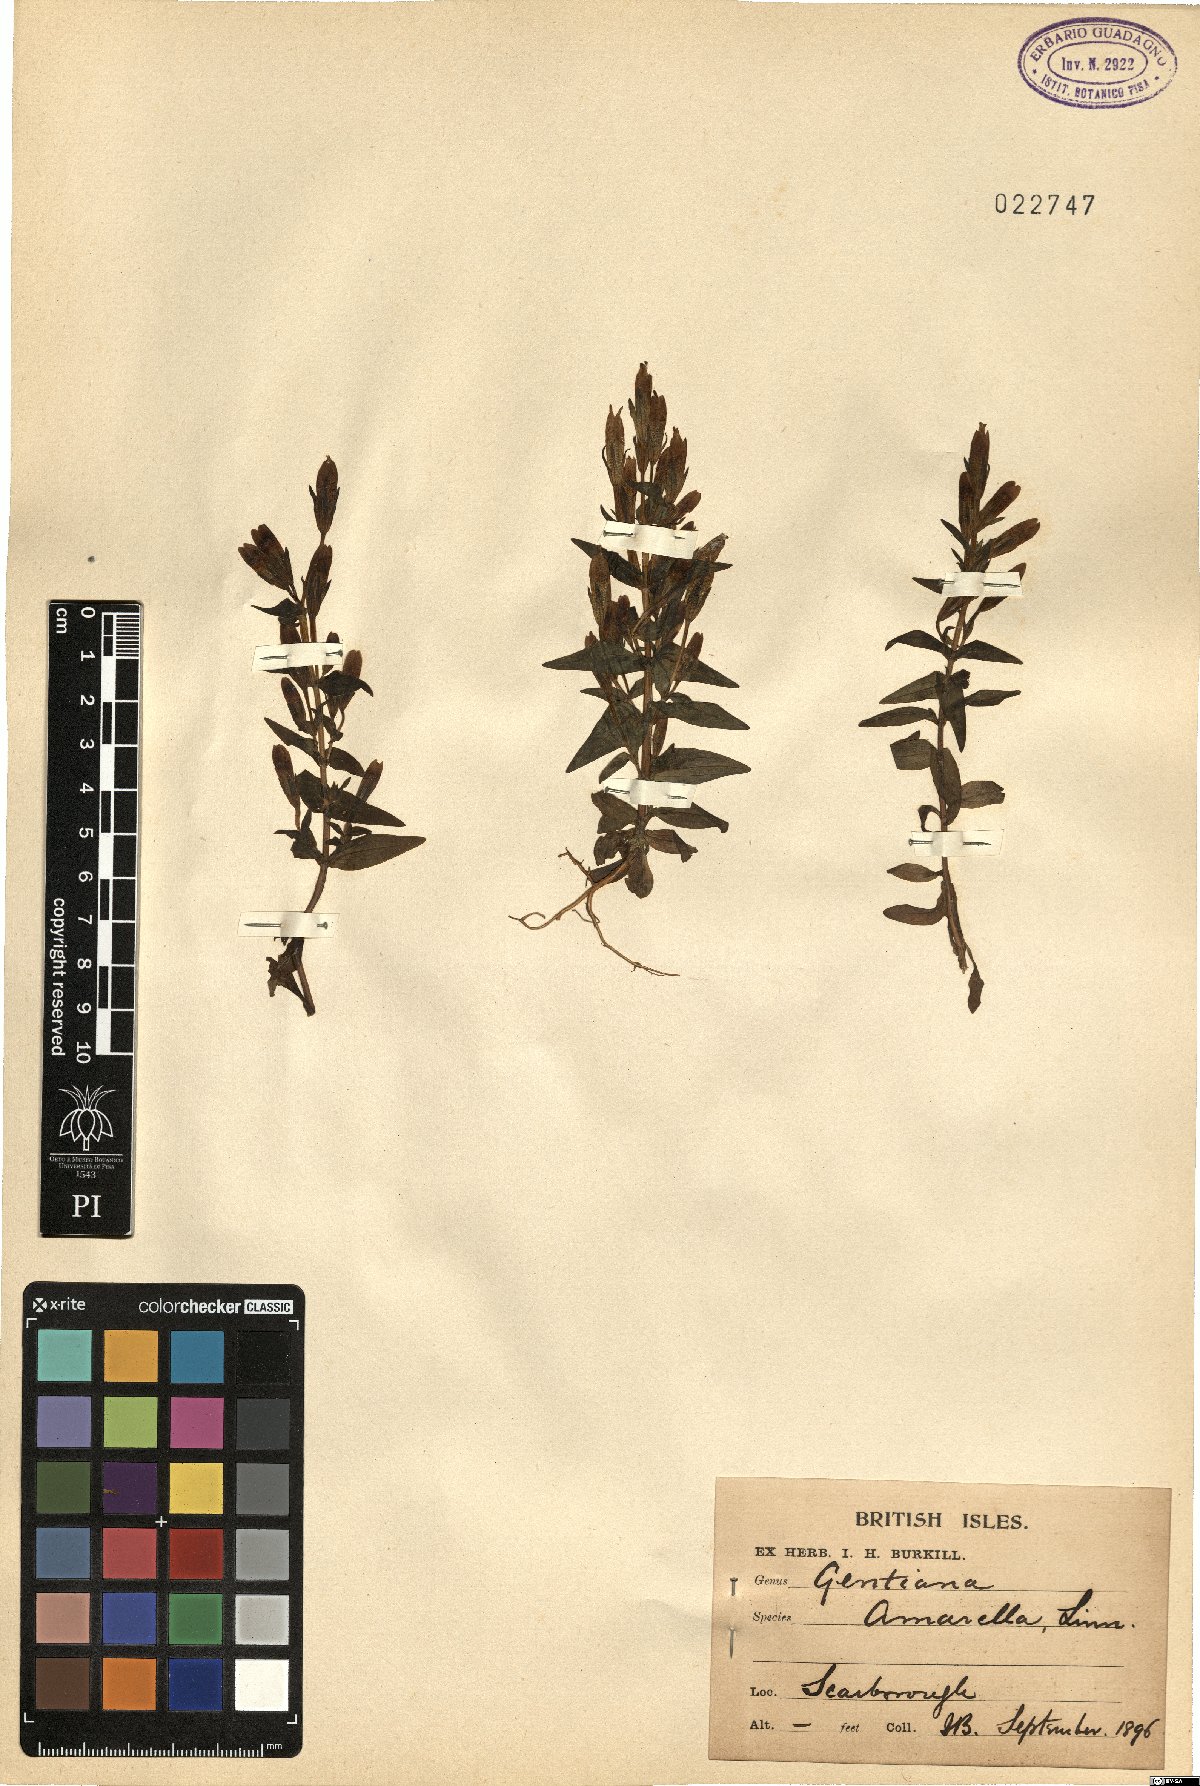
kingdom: Plantae
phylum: Tracheophyta
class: Magnoliopsida
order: Gentianales
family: Gentianaceae
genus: Gentianella
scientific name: Gentianella amarella
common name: Autumn gentian
